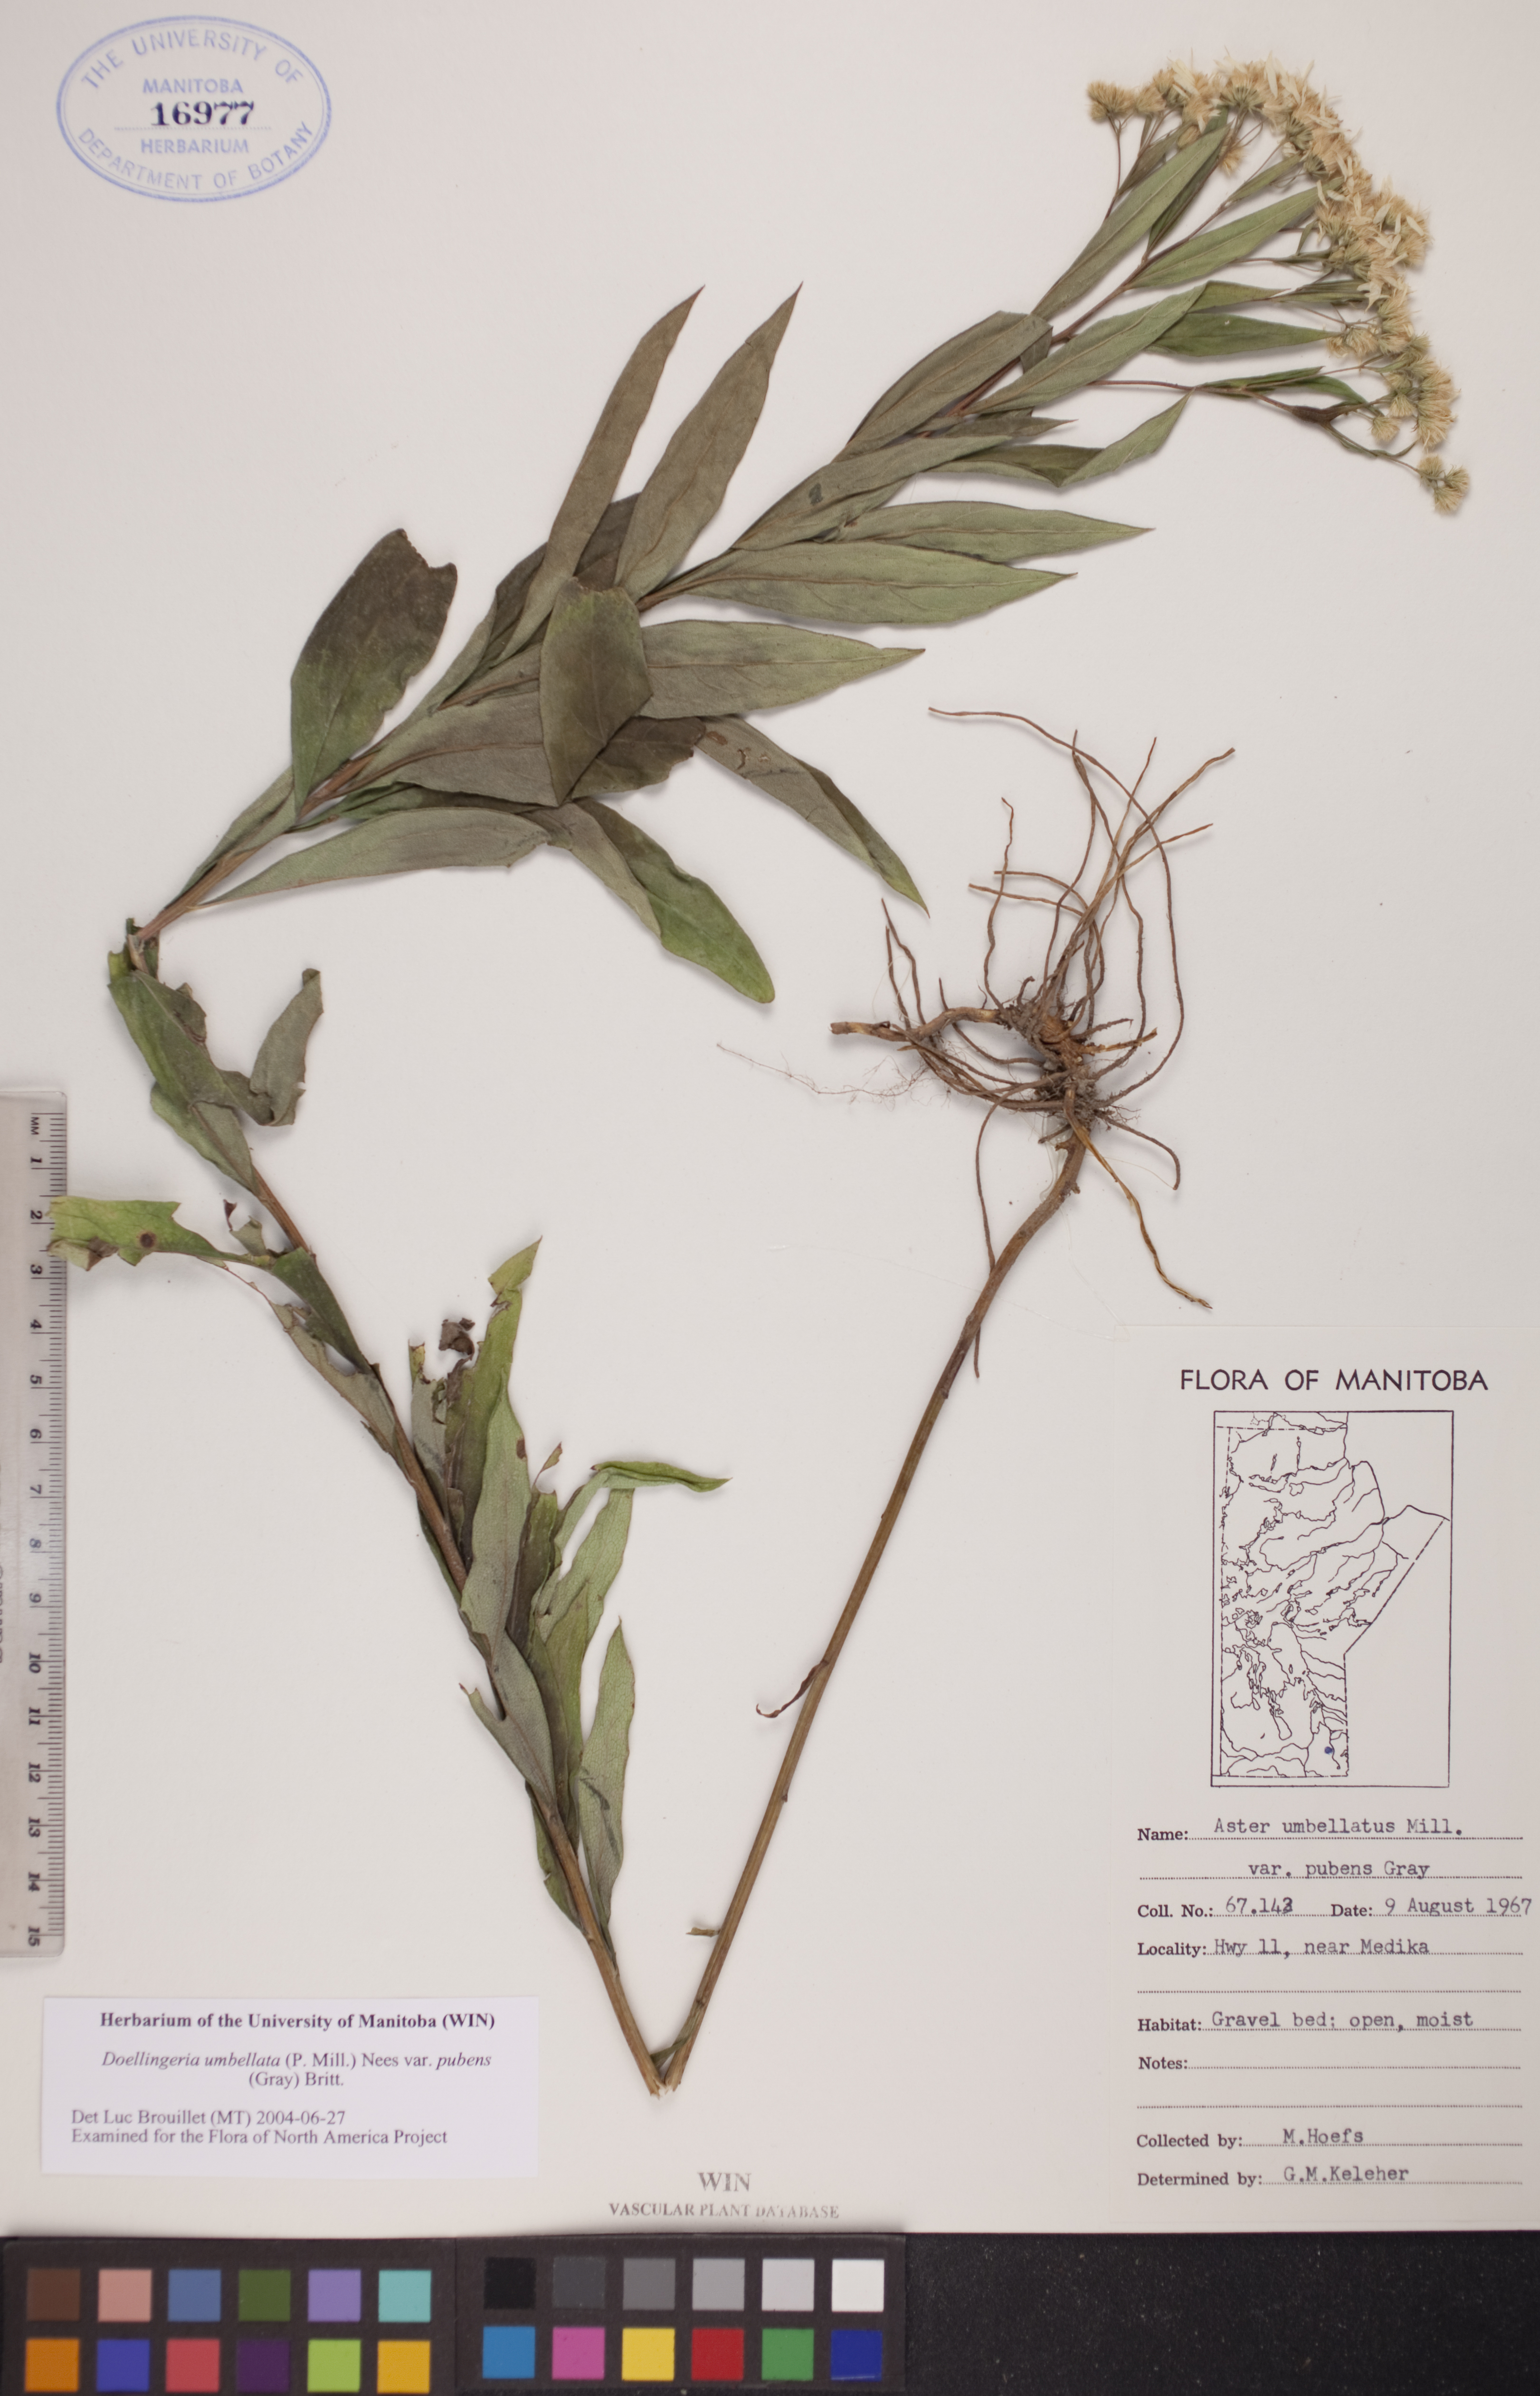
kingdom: Plantae
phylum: Tracheophyta
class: Magnoliopsida
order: Asterales
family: Asteraceae
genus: Doellingeria
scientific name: Doellingeria umbellata
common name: Flat-top white aster
